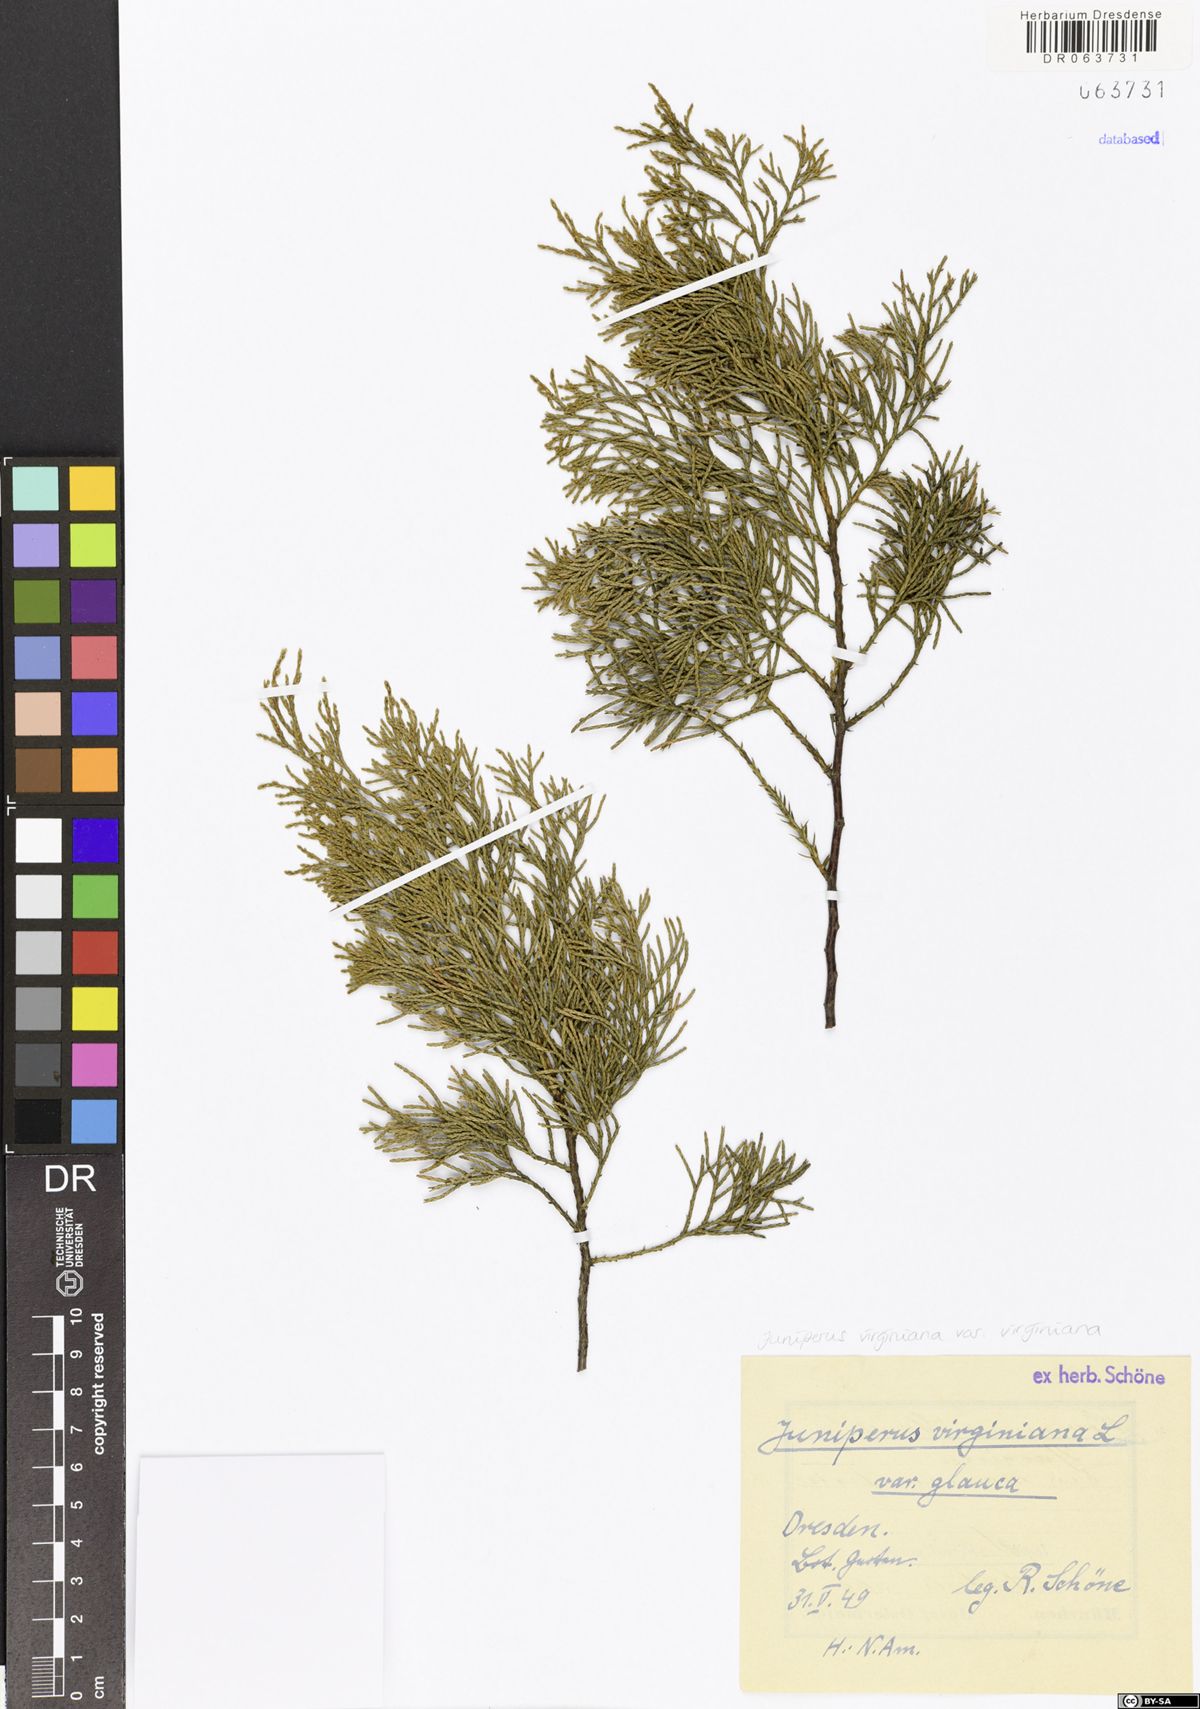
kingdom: Plantae
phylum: Tracheophyta
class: Pinopsida
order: Pinales
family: Cupressaceae
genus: Juniperus
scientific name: Juniperus virginiana
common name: Red juniper
